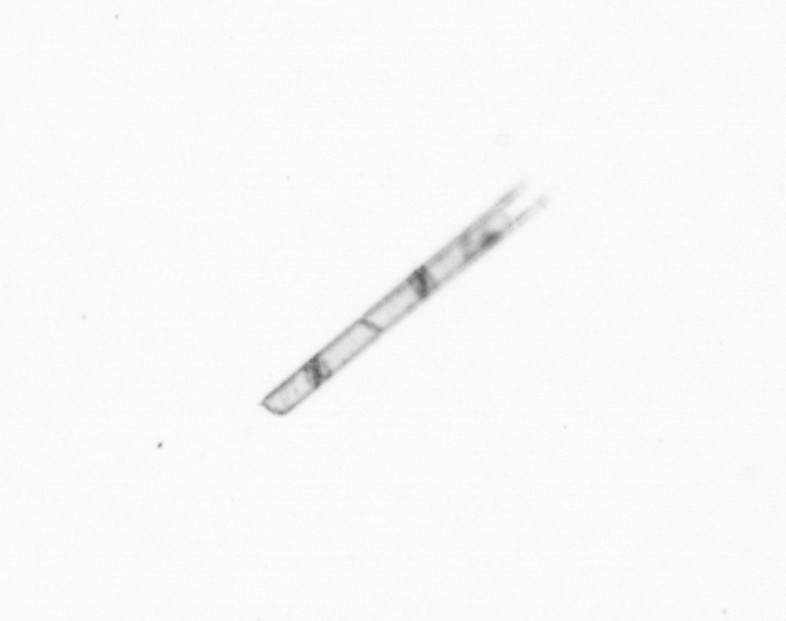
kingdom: Chromista
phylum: Ochrophyta
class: Bacillariophyceae
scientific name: Bacillariophyceae
